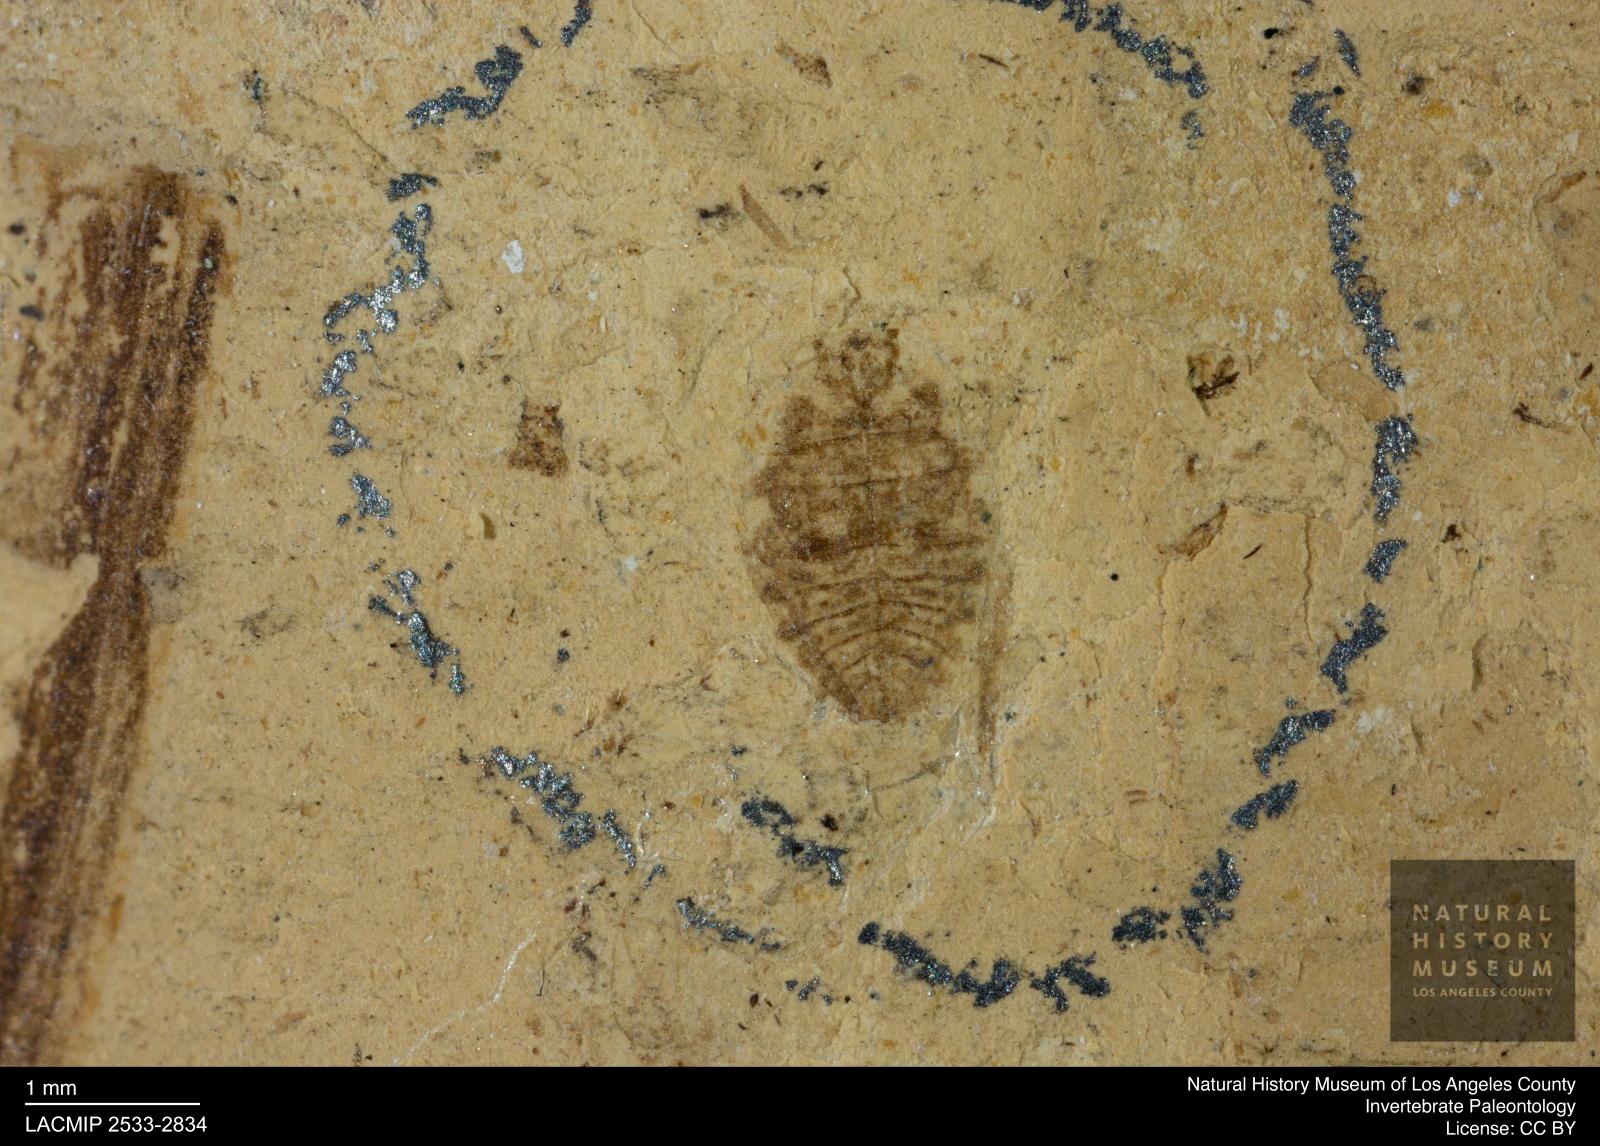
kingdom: Animalia
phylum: Arthropoda
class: Insecta
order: Hemiptera
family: Naucoridae
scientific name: Naucoridae
